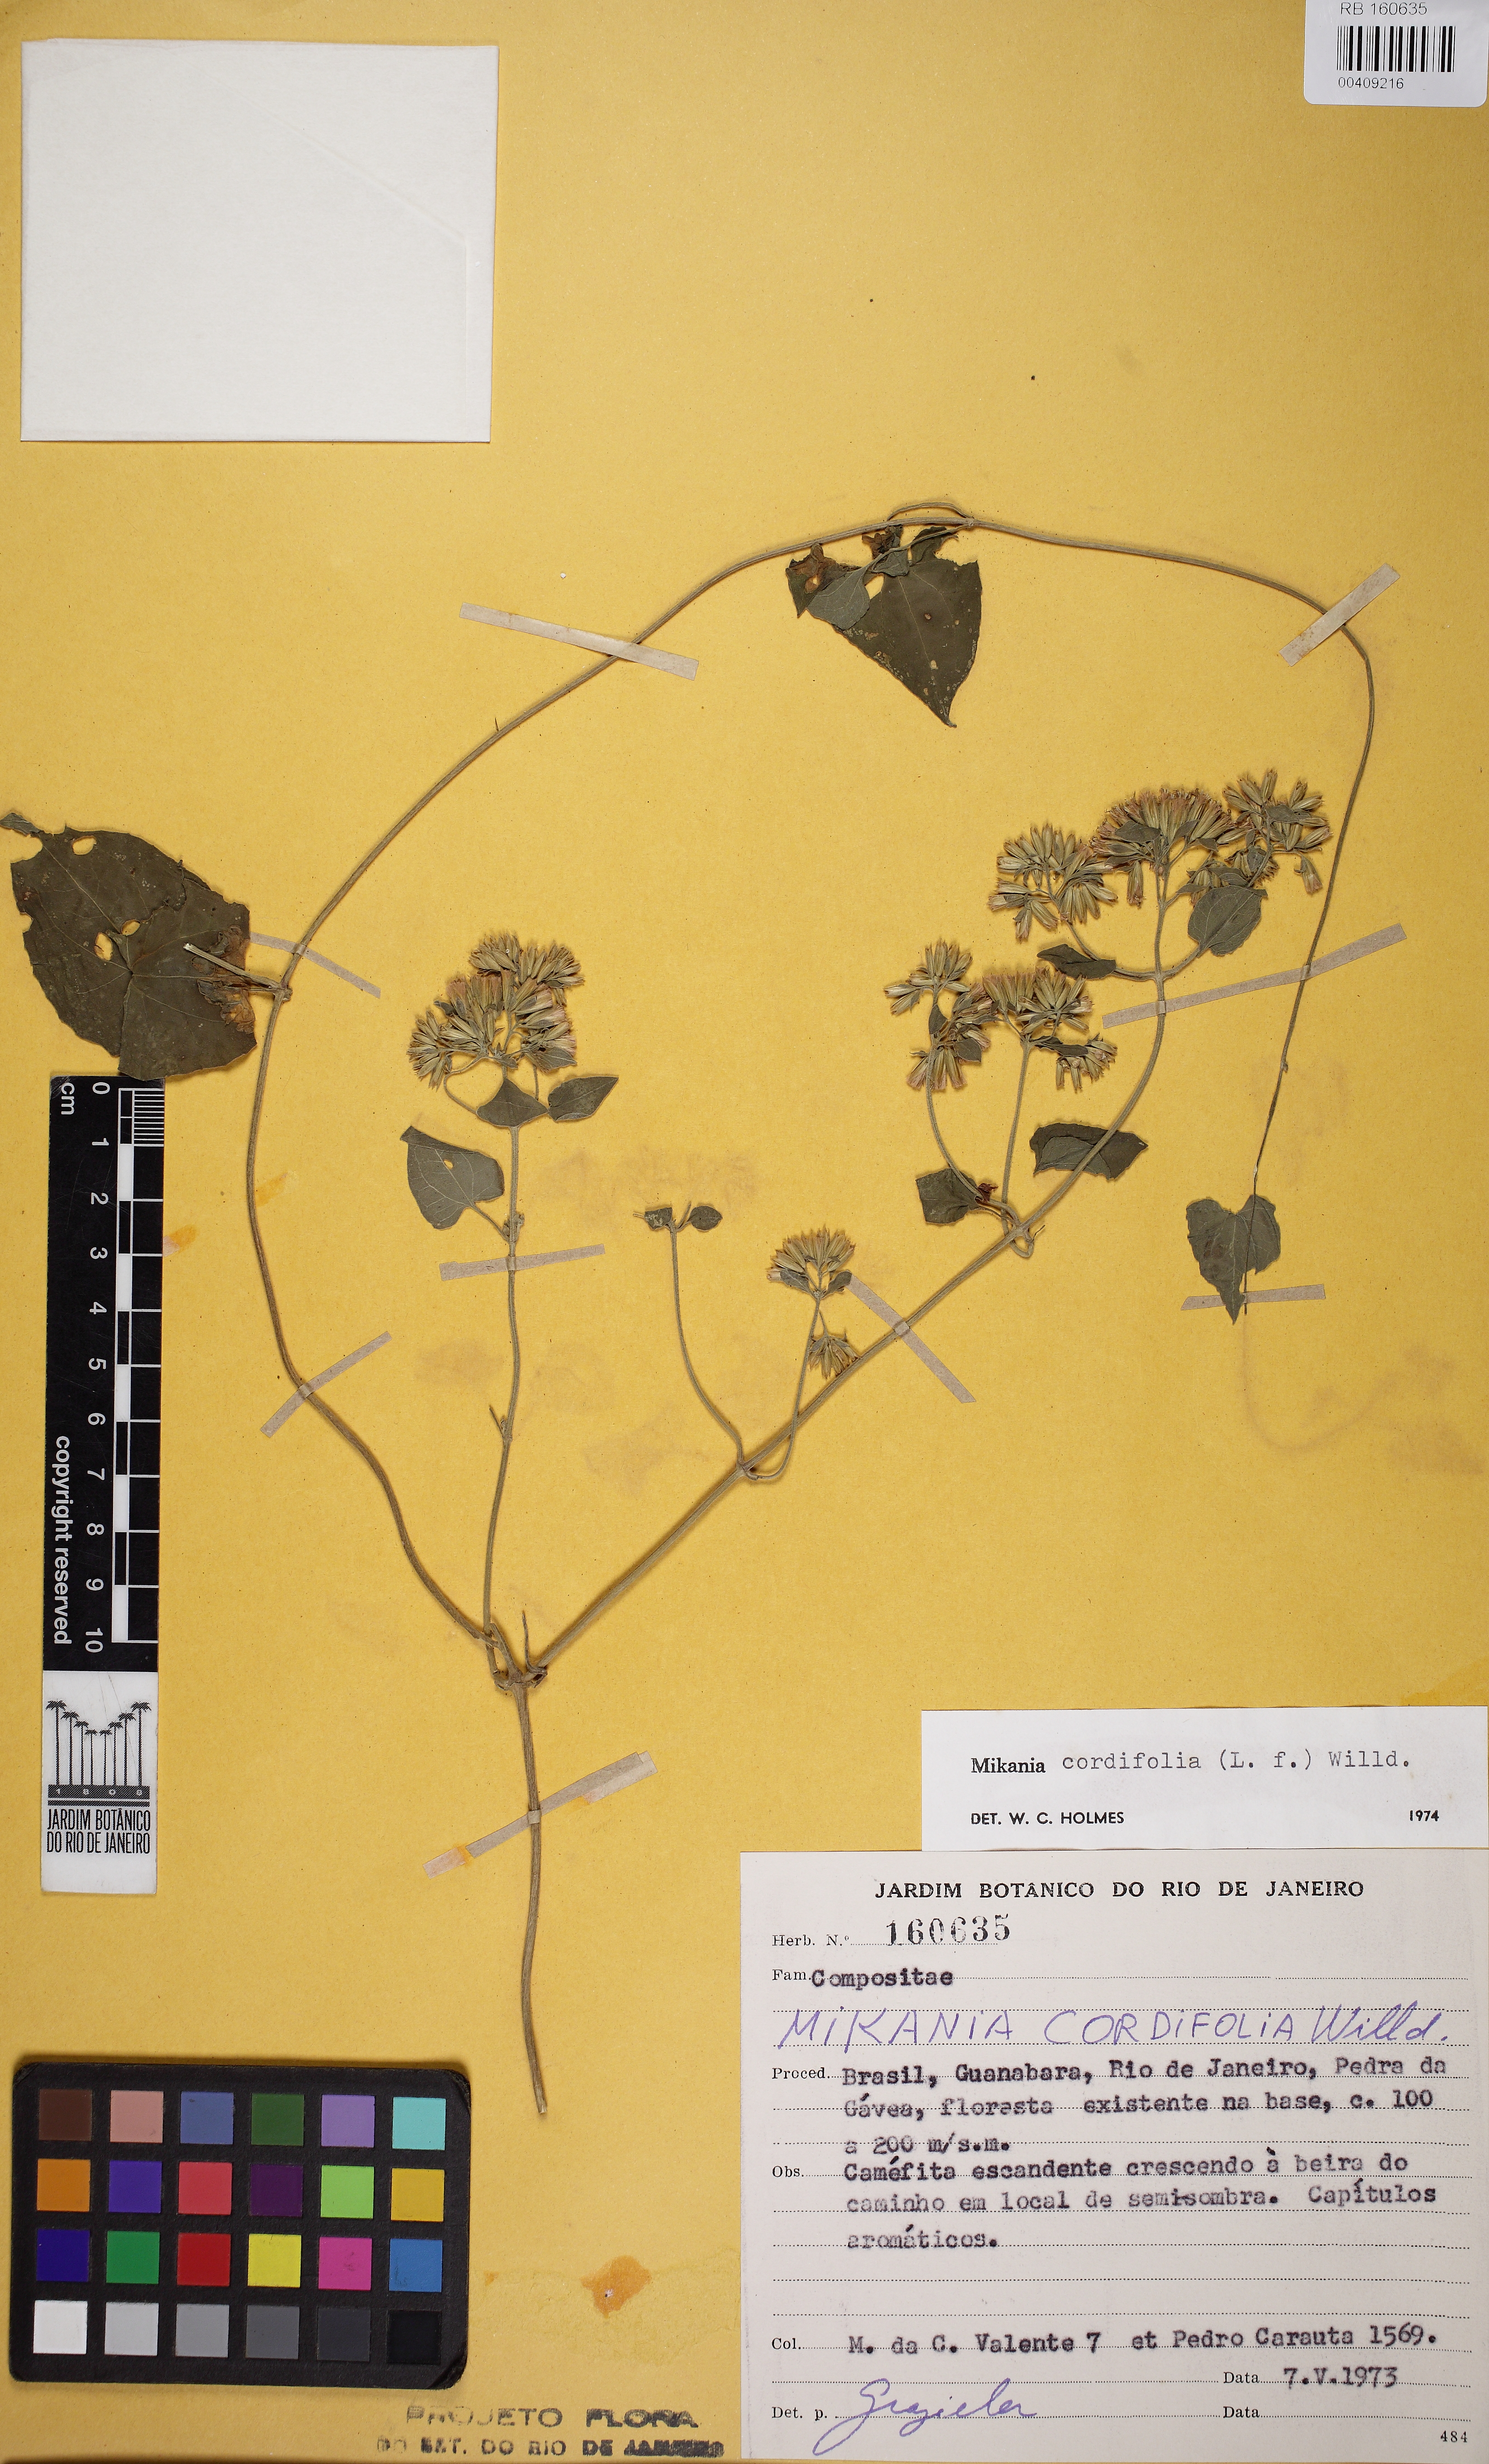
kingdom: Plantae
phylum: Tracheophyta
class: Magnoliopsida
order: Asterales
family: Asteraceae
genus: Mikania
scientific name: Mikania cordifolia
